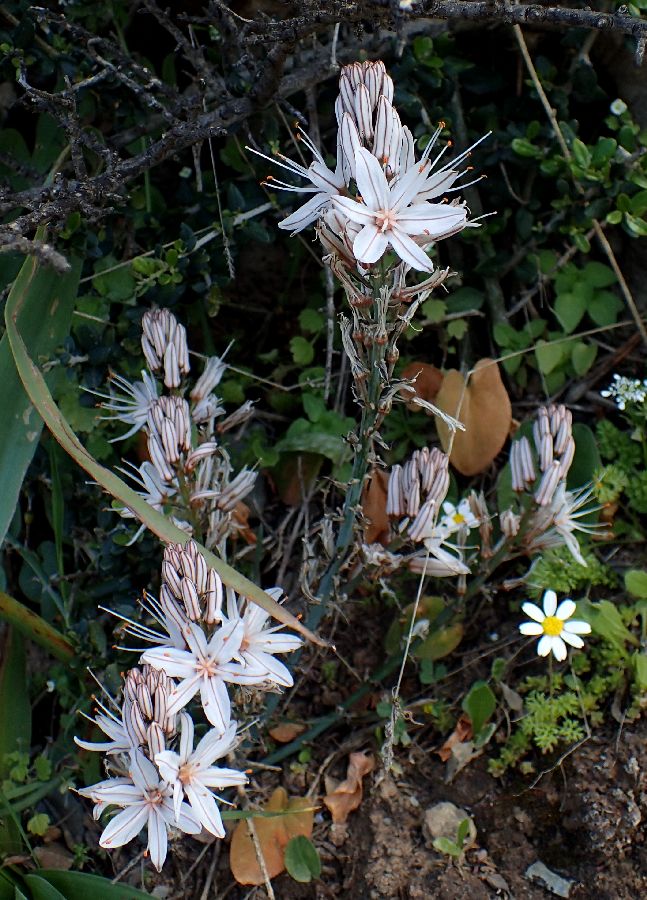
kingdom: Plantae
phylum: Tracheophyta
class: Liliopsida
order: Asparagales
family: Asphodelaceae
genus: Asphodelus
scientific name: Asphodelus ramosus
